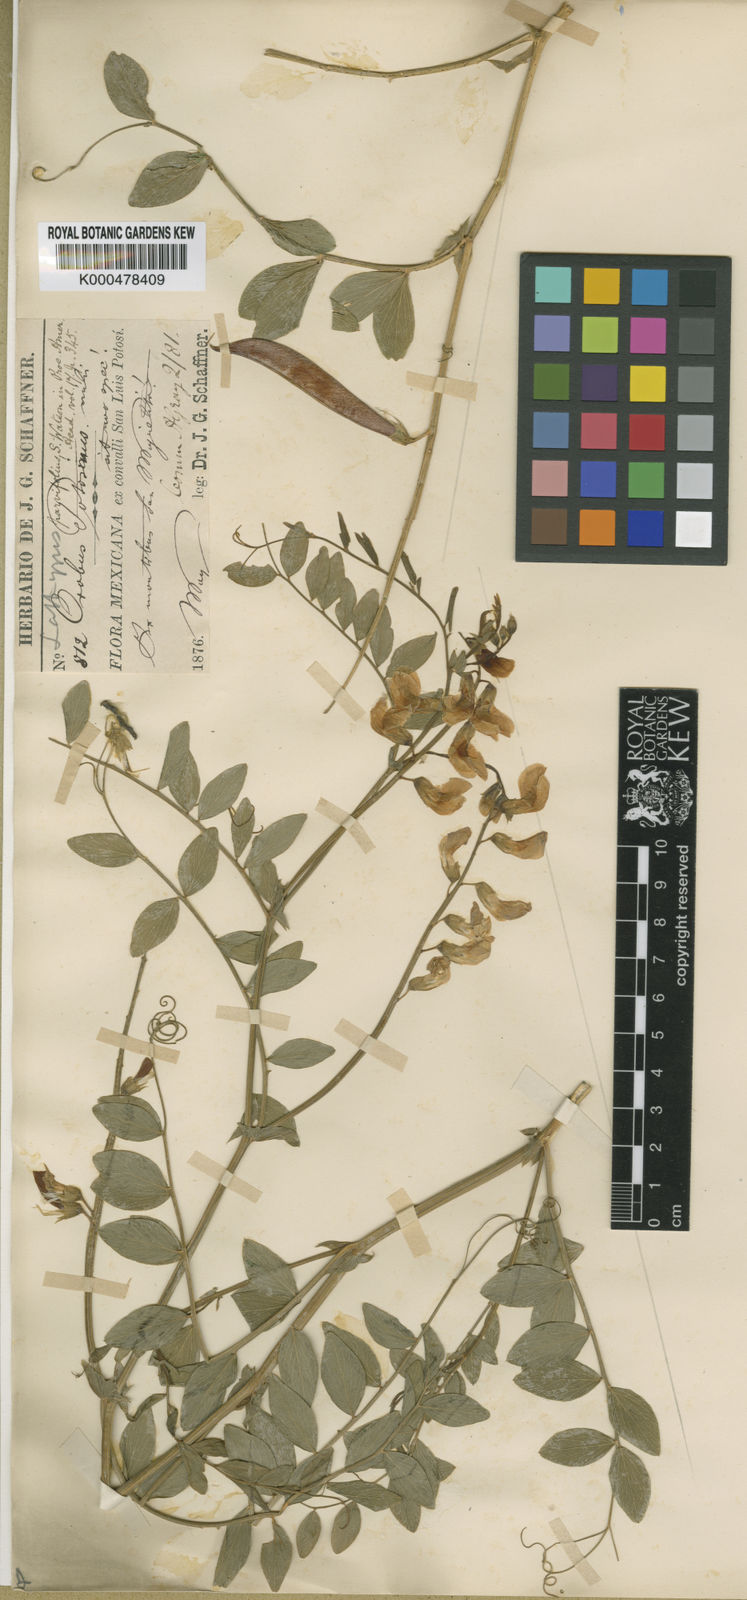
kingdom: Plantae
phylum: Tracheophyta
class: Magnoliopsida
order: Fabales
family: Fabaceae
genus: Lathyrus
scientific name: Lathyrus speciosus
